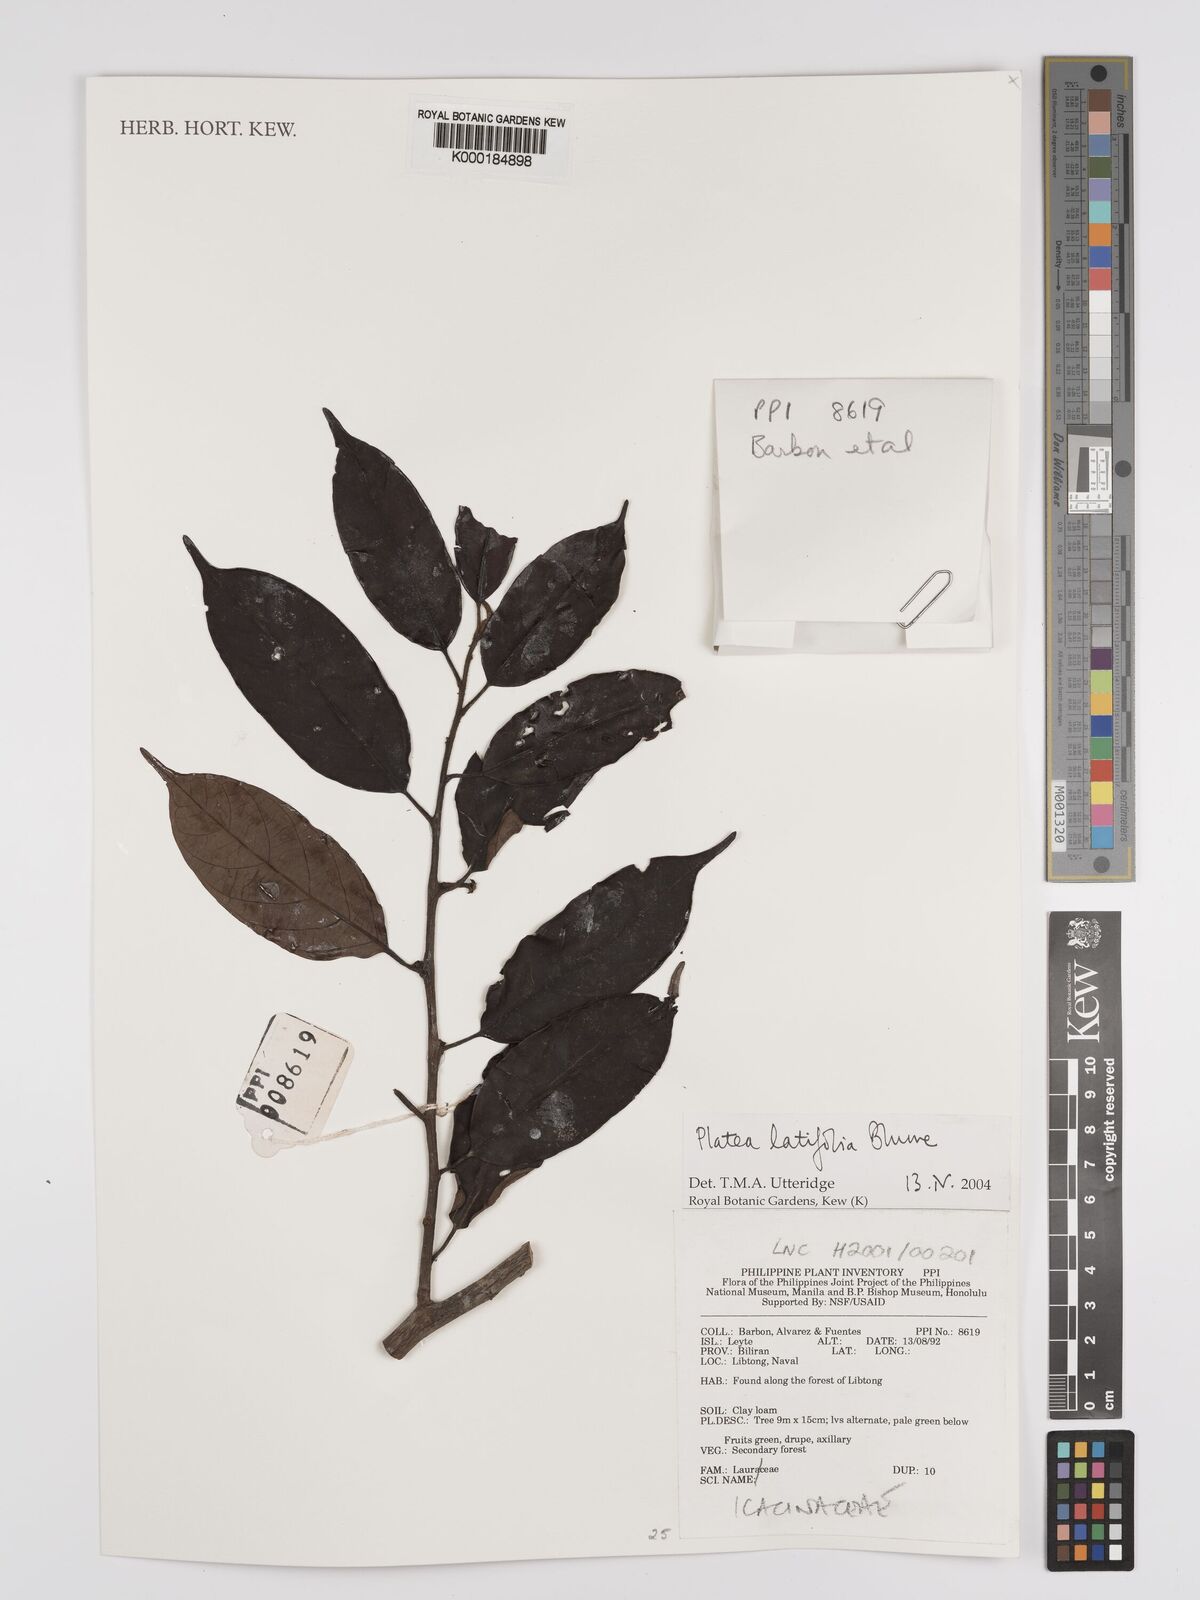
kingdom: Plantae
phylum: Tracheophyta
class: Magnoliopsida
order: Metteniusales
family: Metteniusaceae
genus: Platea
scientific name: Platea latifolia
